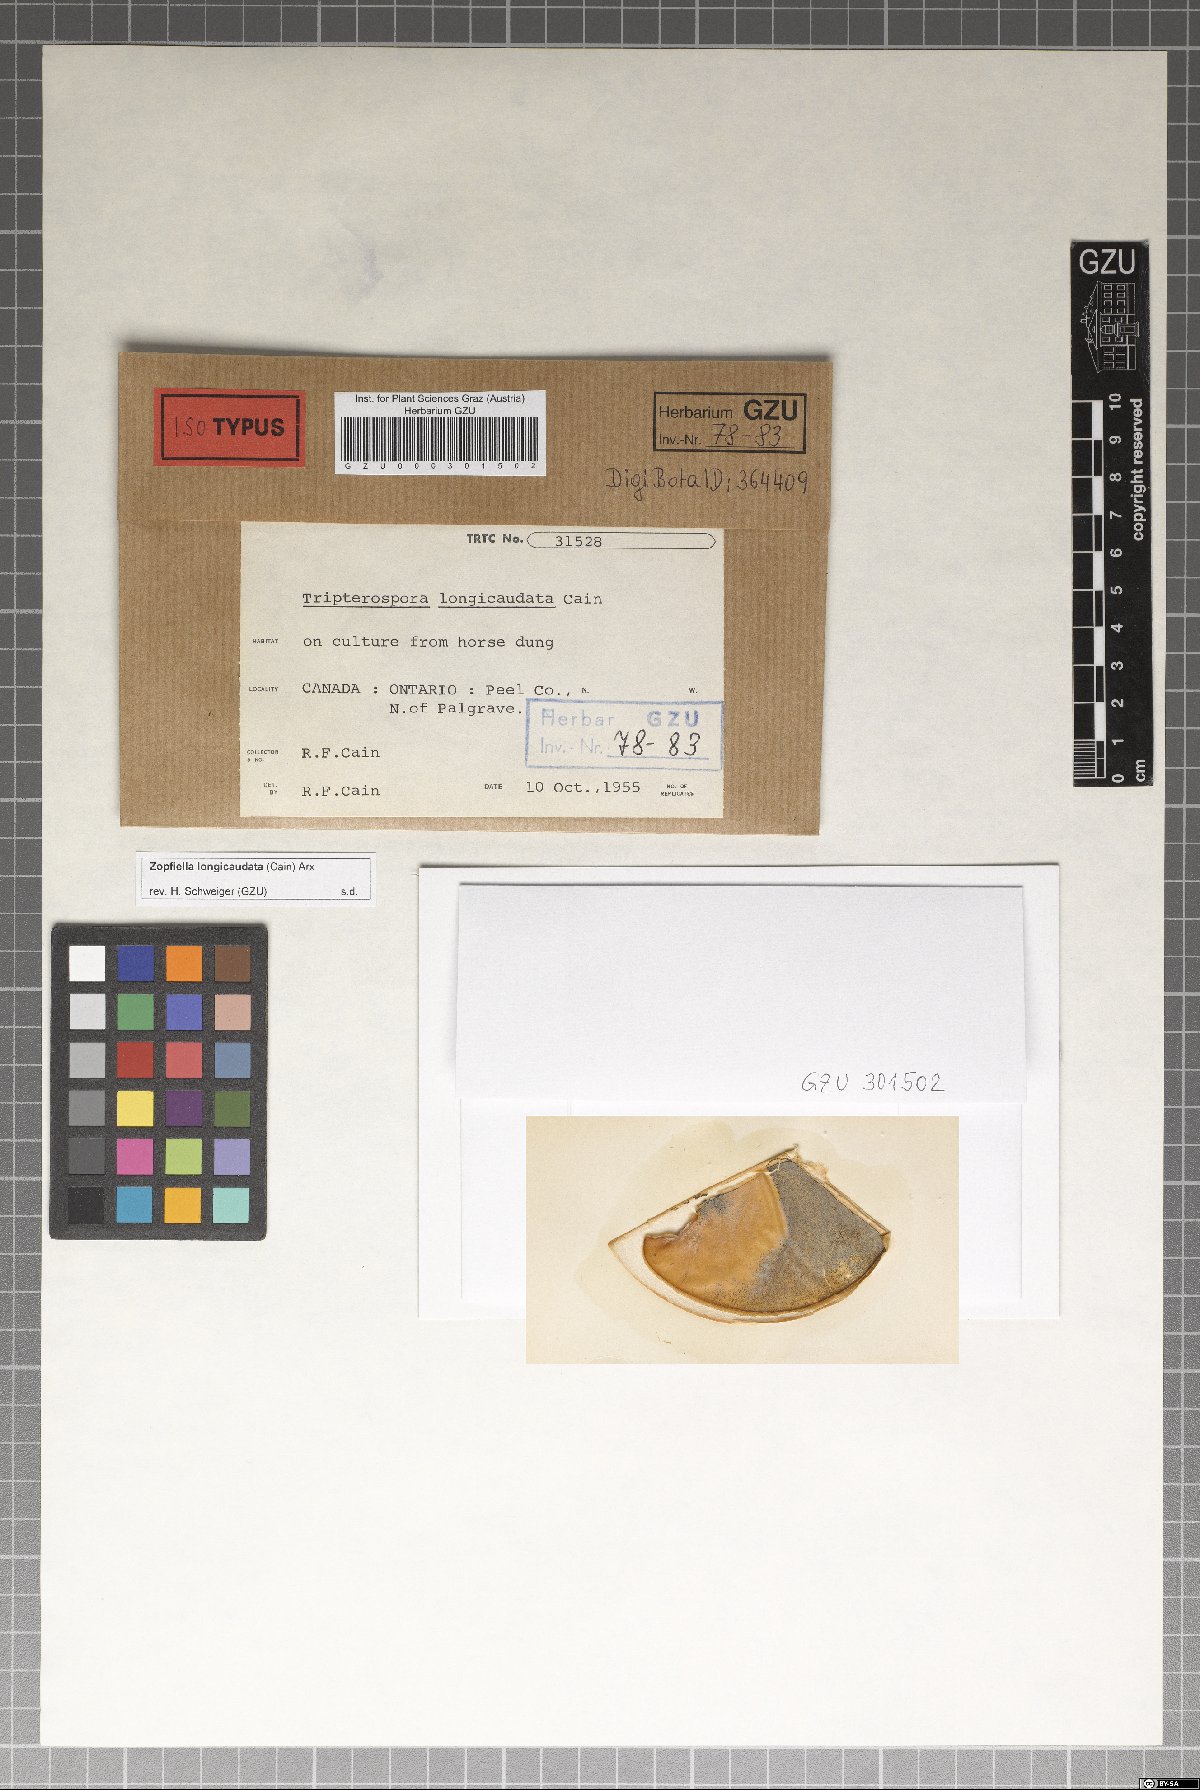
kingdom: Fungi
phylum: Ascomycota
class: Sordariomycetes
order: Sordariales
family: Podosporaceae
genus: Triangularia
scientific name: Triangularia longicaudata
